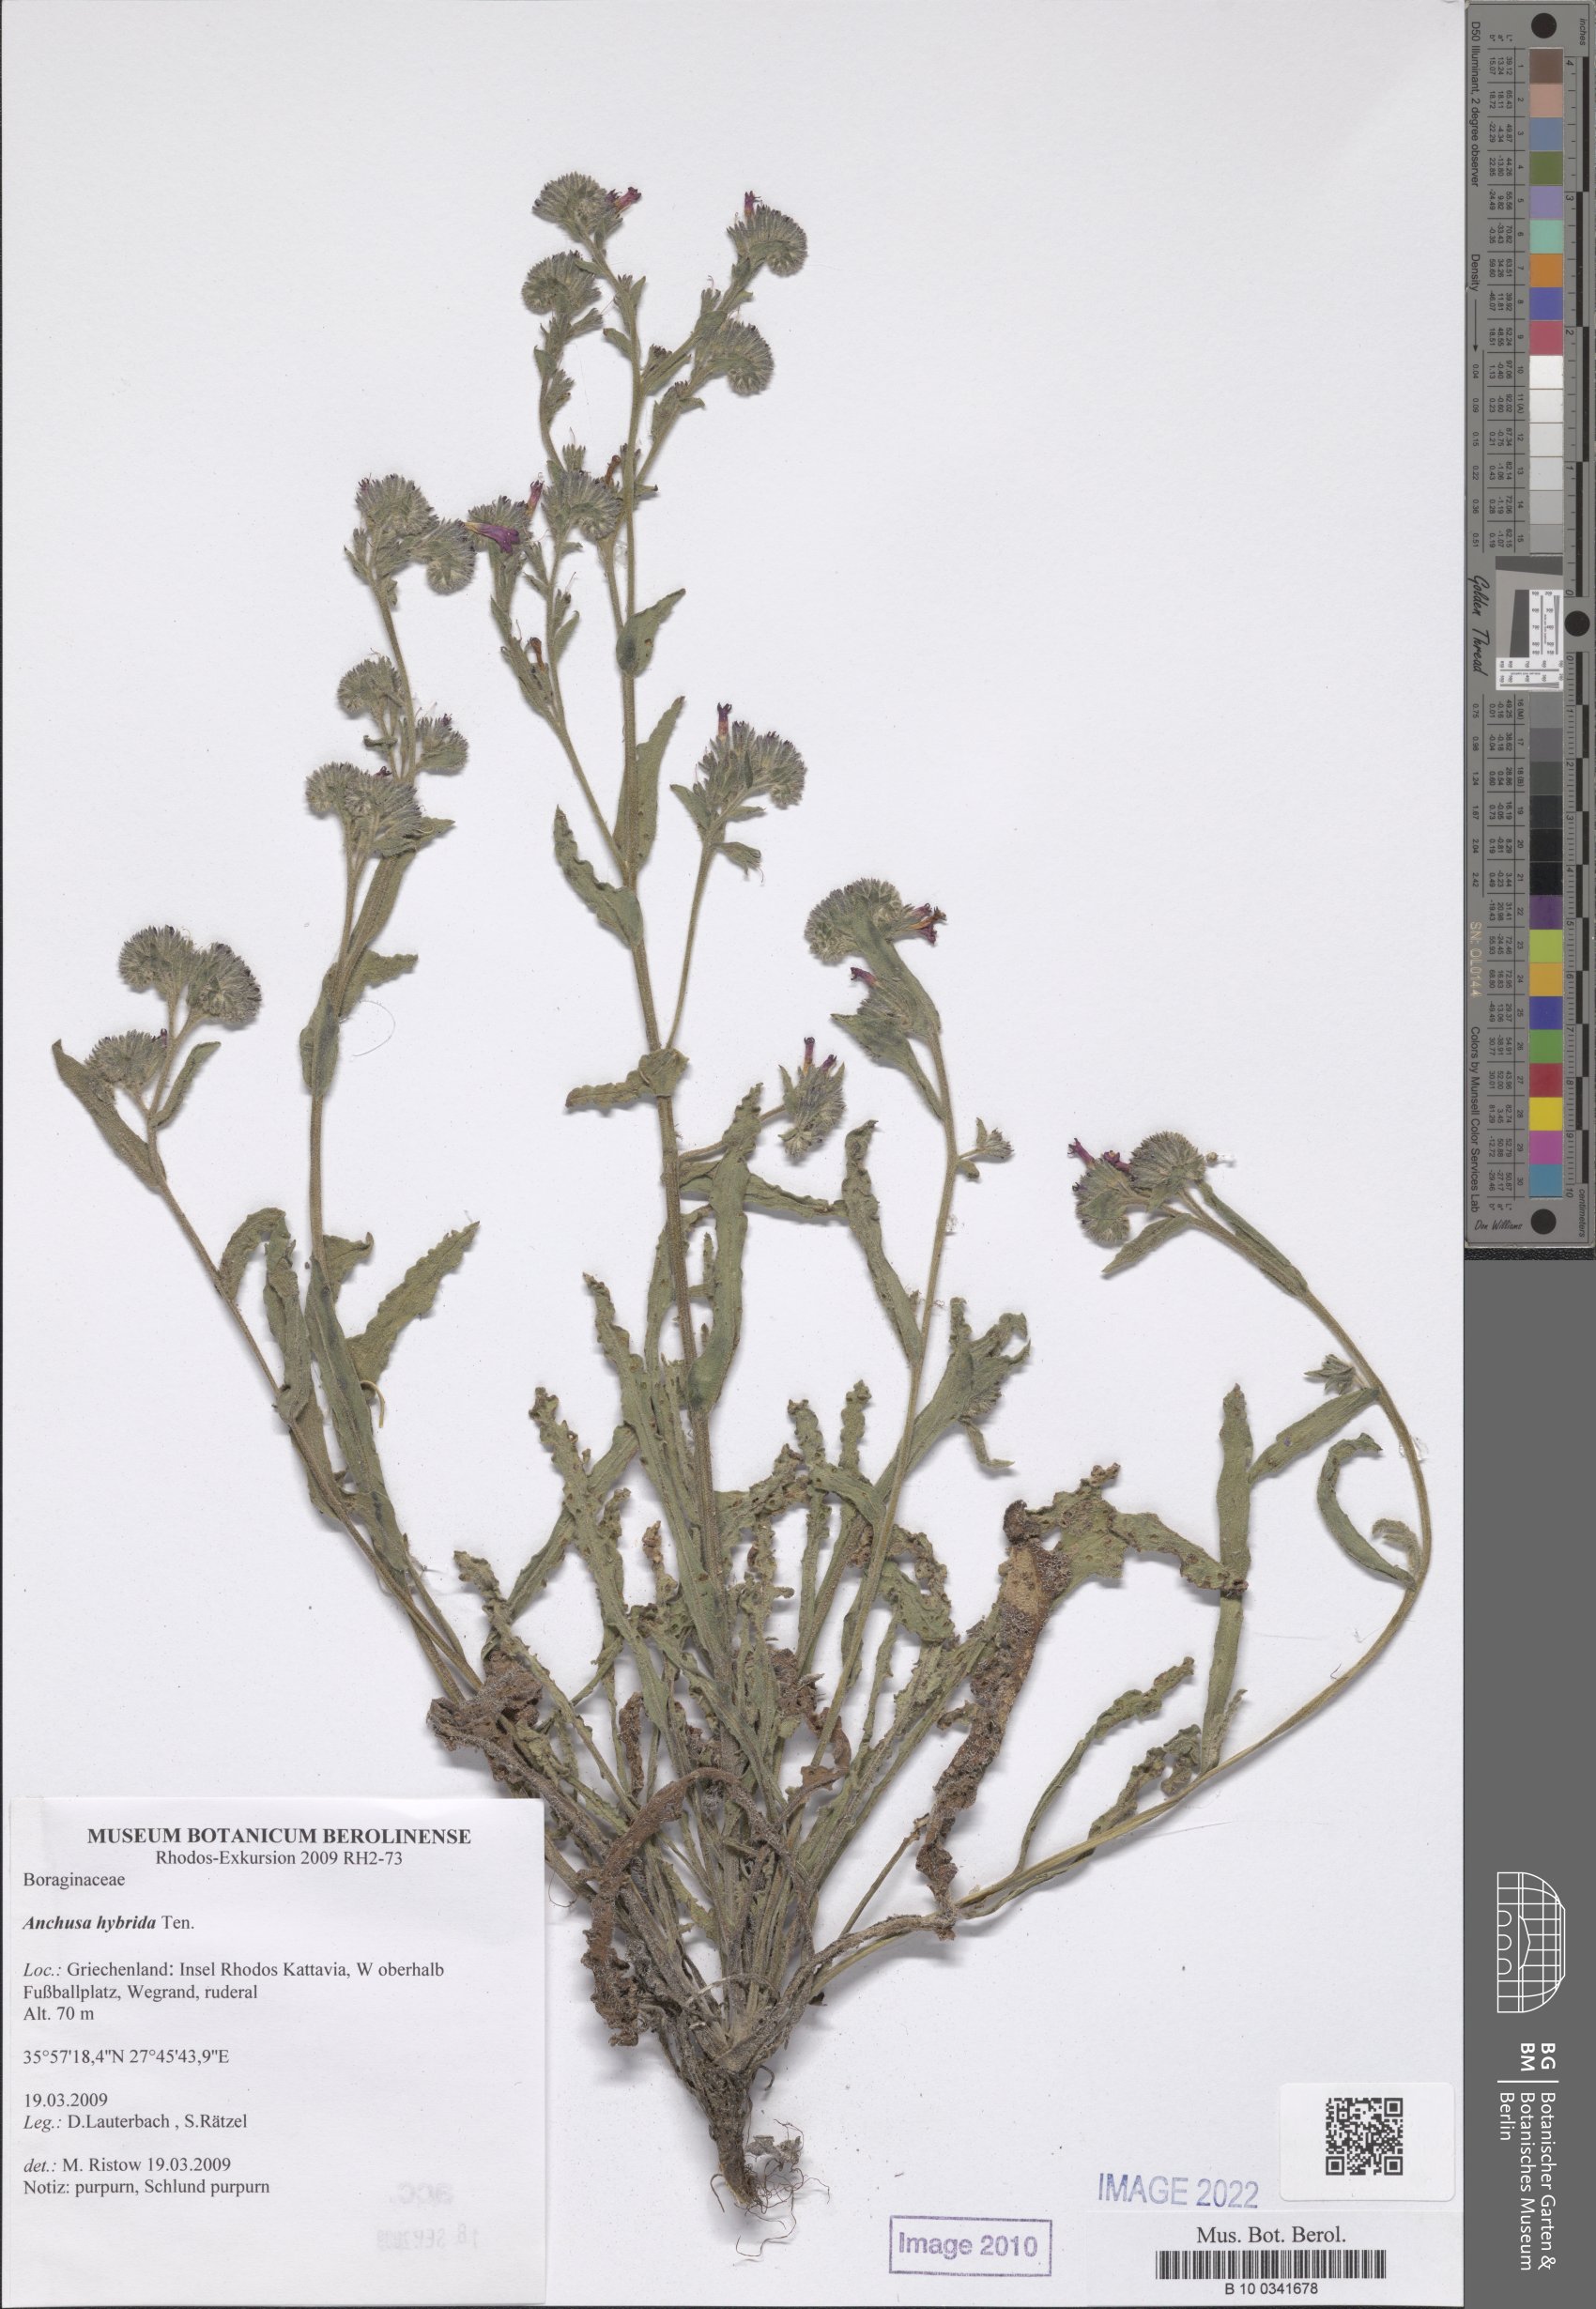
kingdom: Plantae
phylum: Tracheophyta
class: Magnoliopsida
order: Boraginales
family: Boraginaceae
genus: Anchusa
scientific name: Anchusa hybrida
